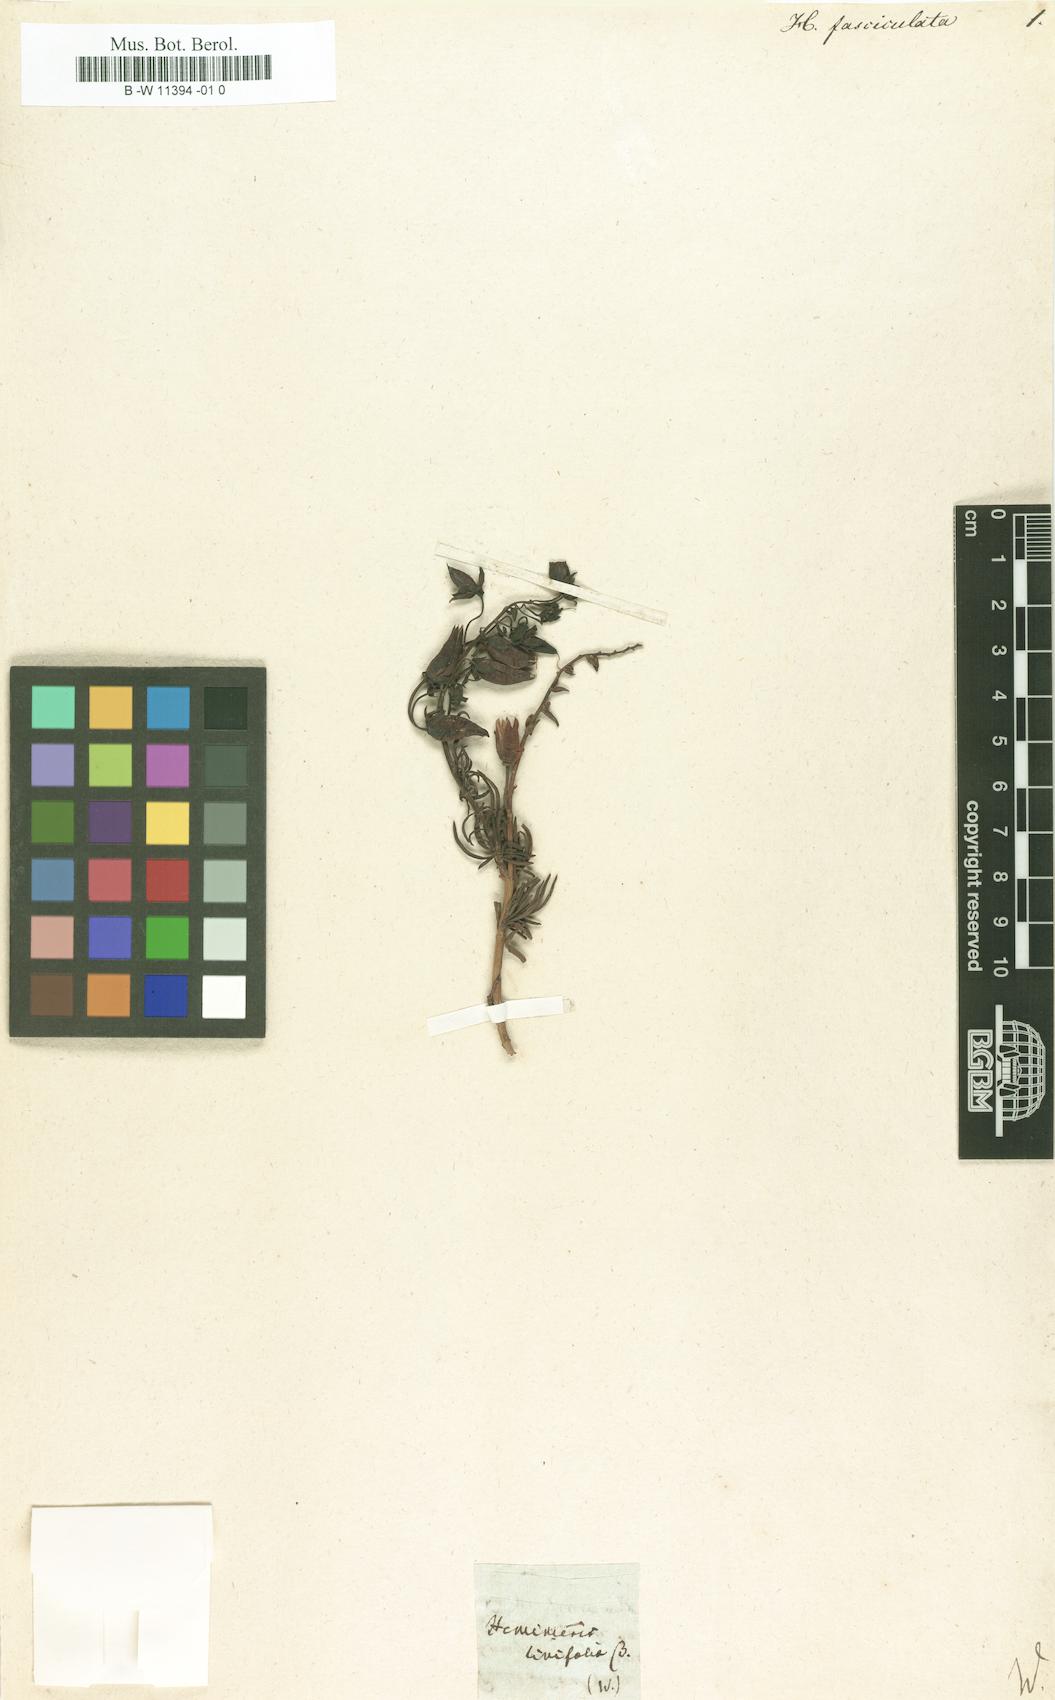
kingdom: Plantae
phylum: Tracheophyta
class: Magnoliopsida
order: Lamiales
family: Scrophulariaceae
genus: Hemimeris
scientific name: Hemimeris
